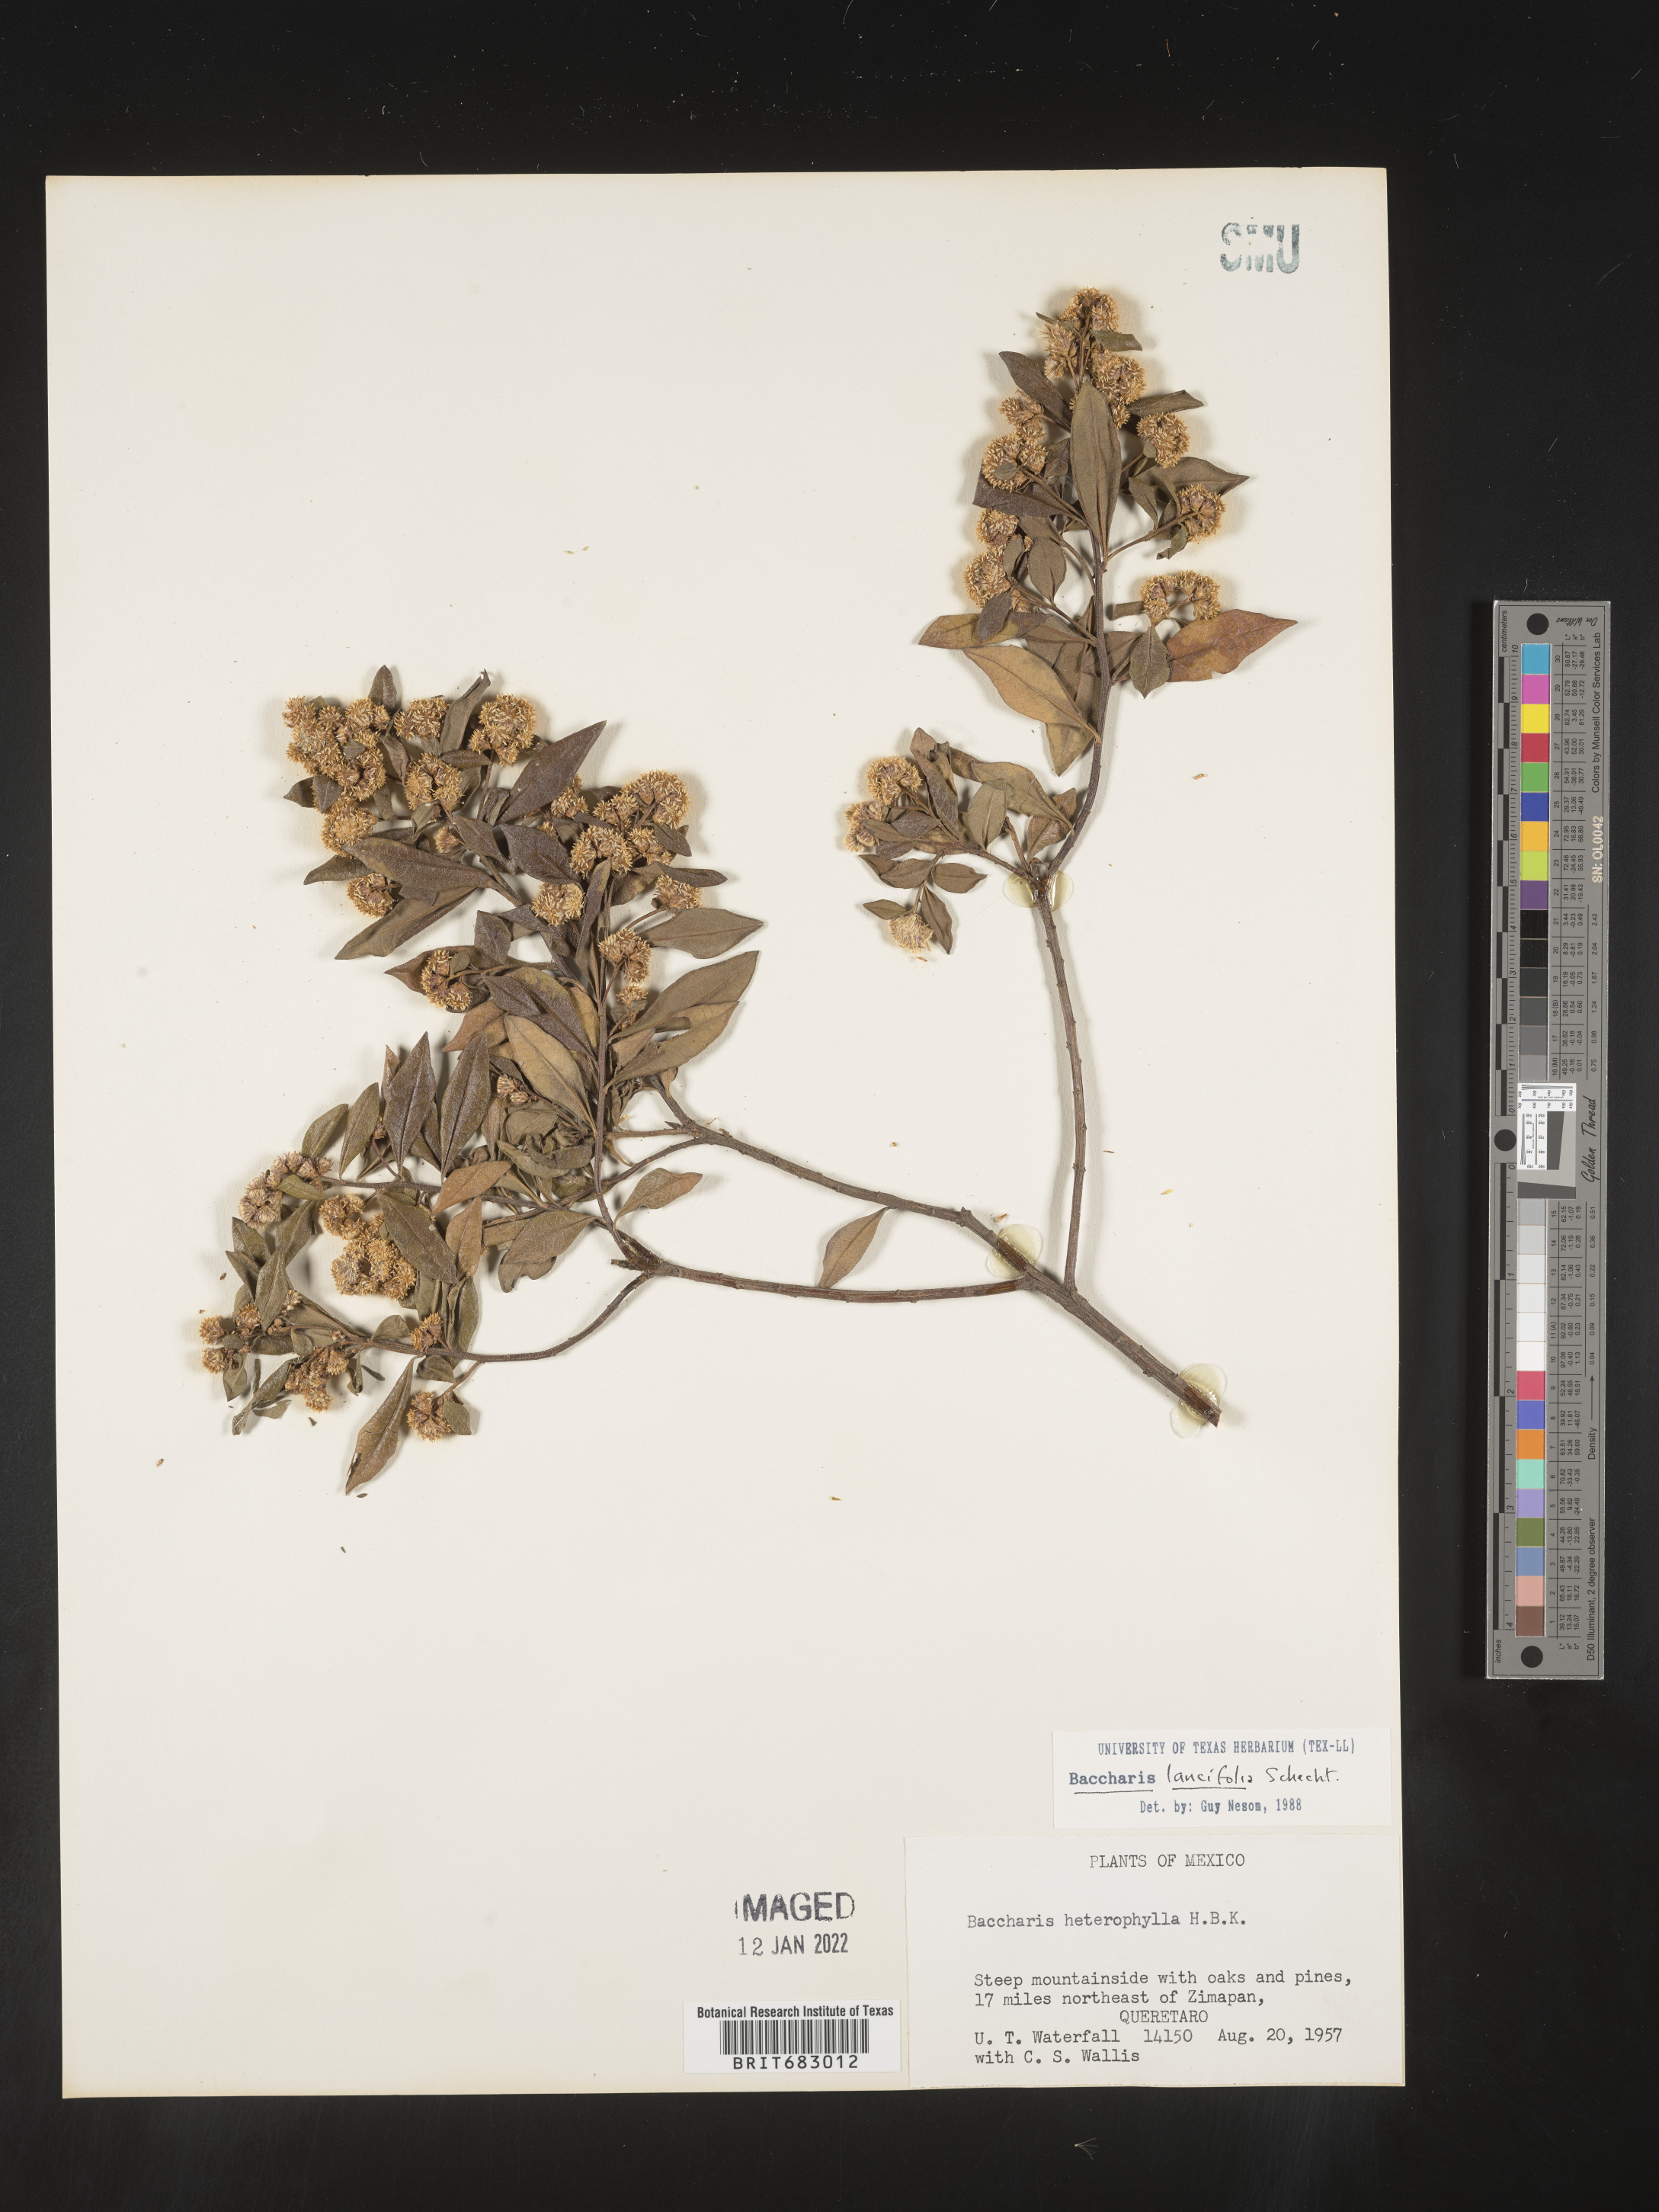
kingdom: Plantae
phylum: Tracheophyta
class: Magnoliopsida
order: Asterales
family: Asteraceae
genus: Baccharis
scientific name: Baccharis lancifolia
